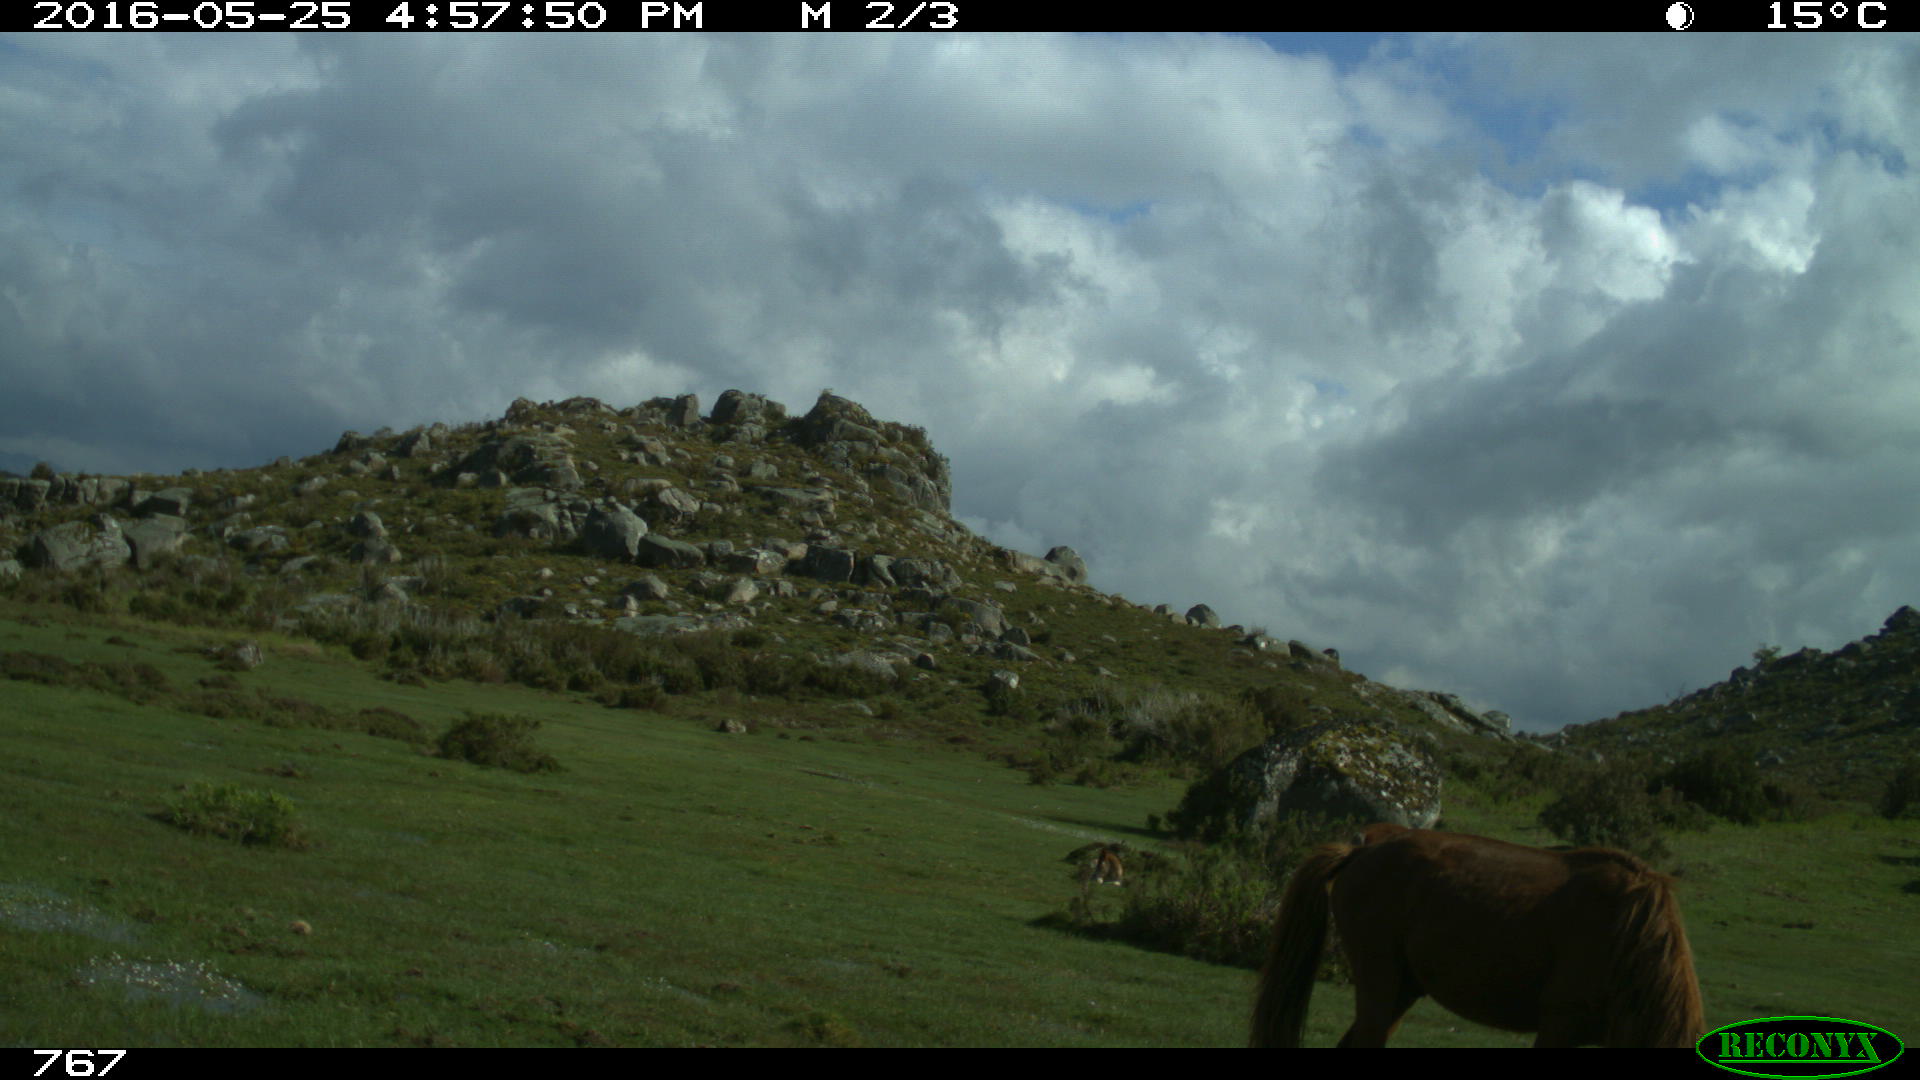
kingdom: Animalia
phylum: Chordata
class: Mammalia
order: Perissodactyla
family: Equidae
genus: Equus
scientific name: Equus caballus
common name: Horse
